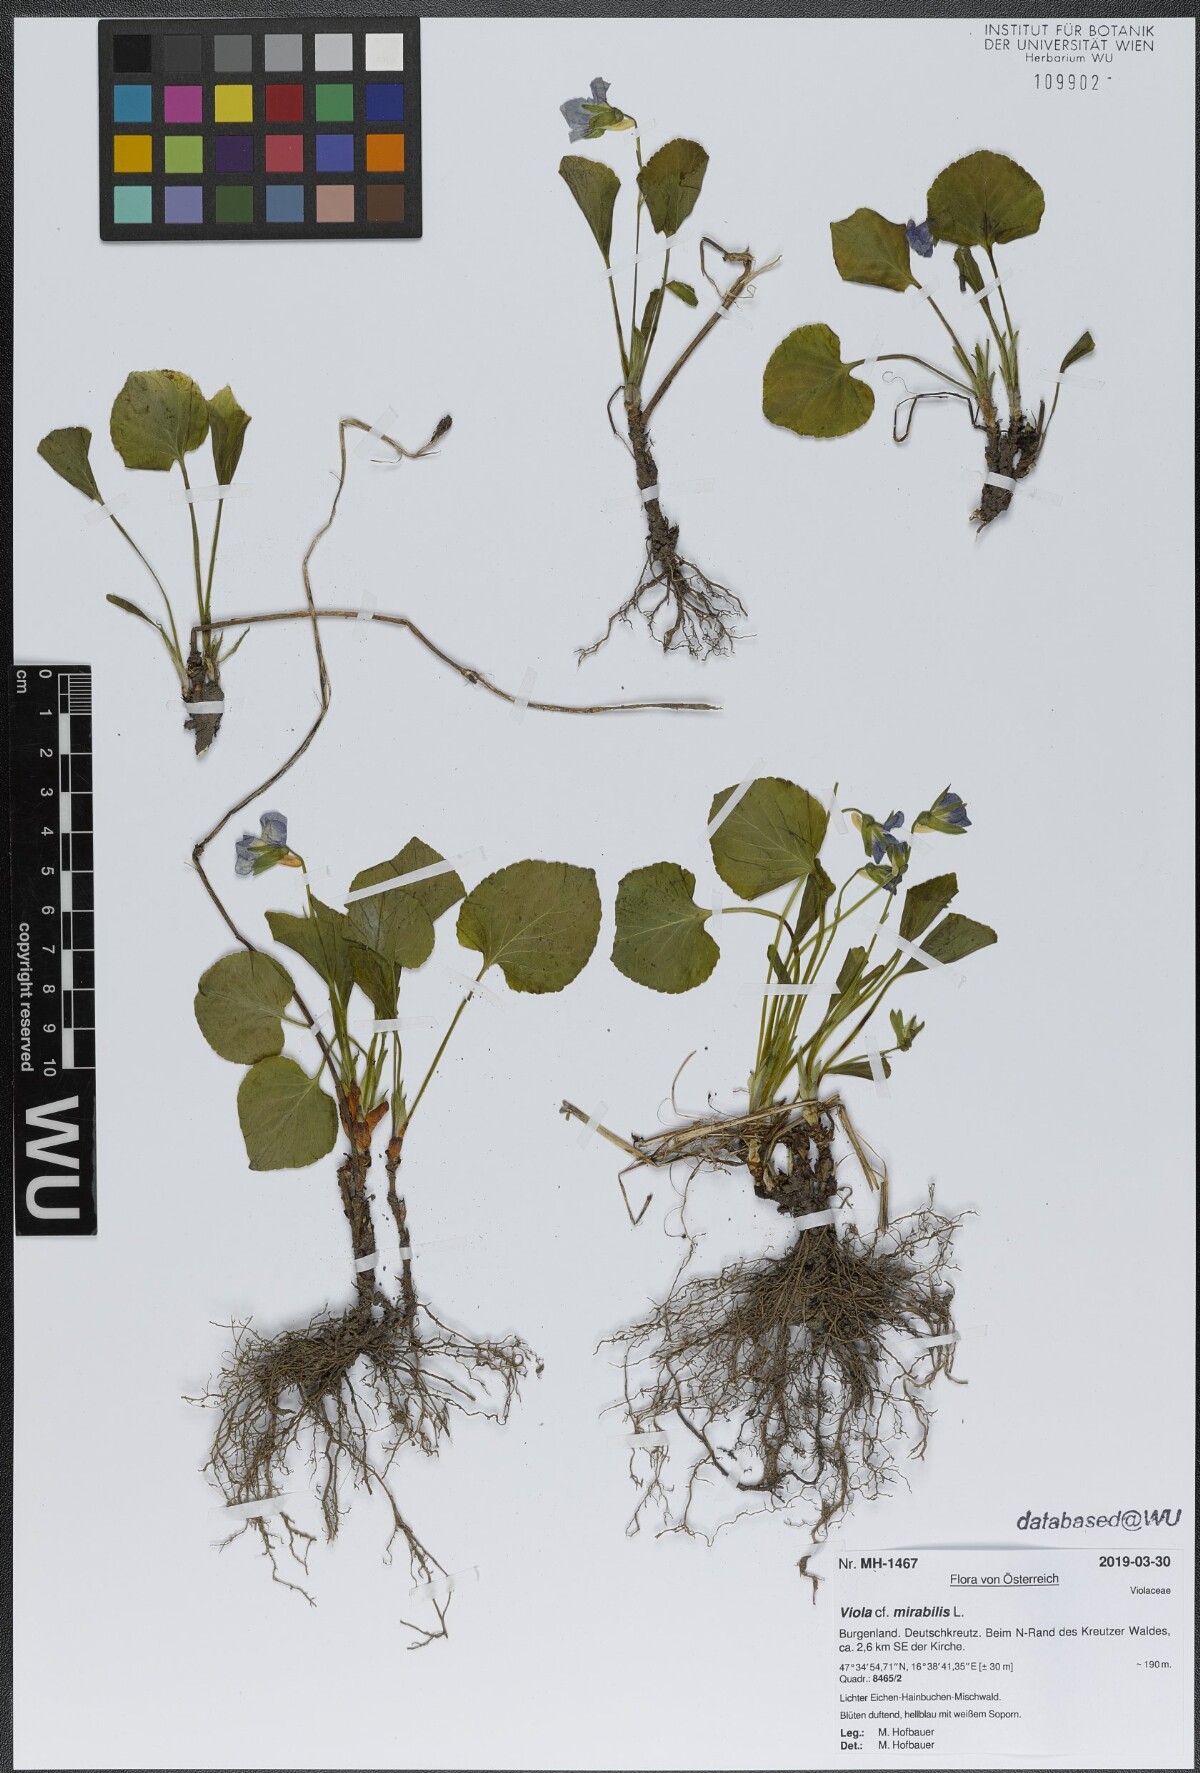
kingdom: Plantae
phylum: Tracheophyta
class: Magnoliopsida
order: Malpighiales
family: Violaceae
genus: Viola
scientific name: Viola mirabilis
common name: Wonder violet
